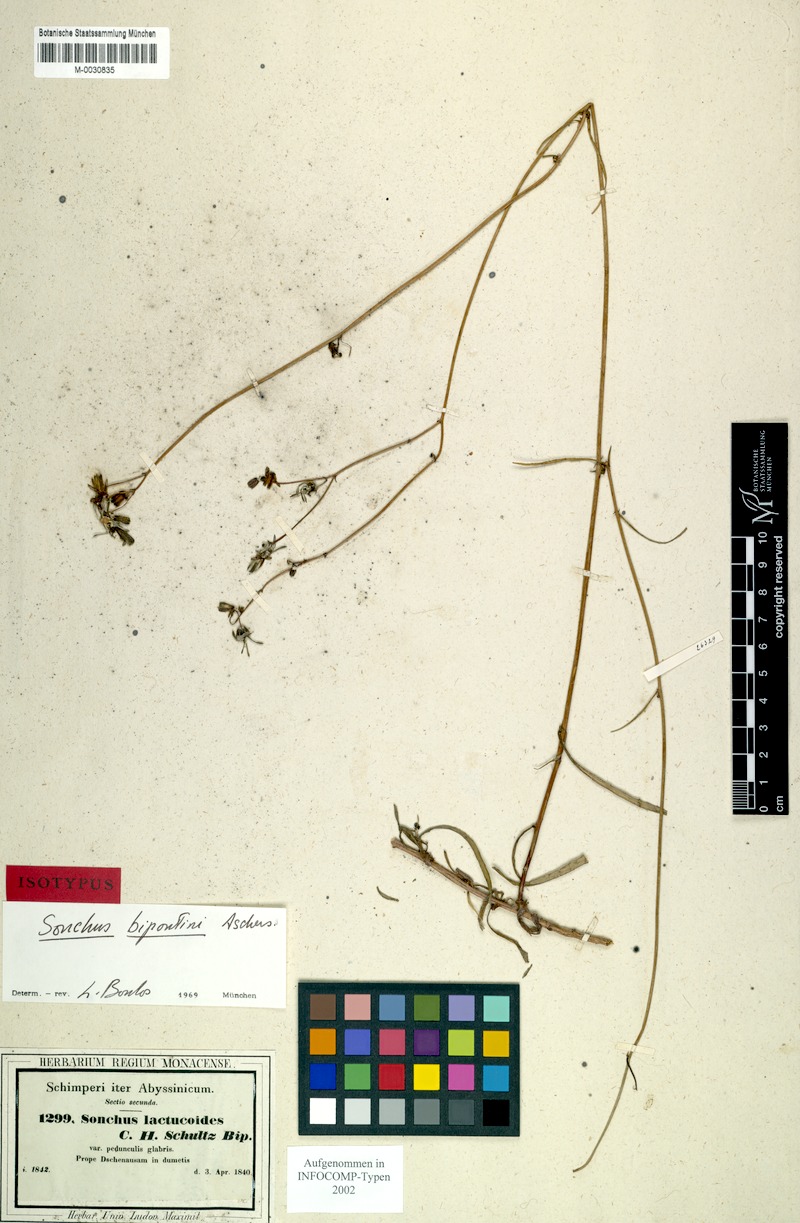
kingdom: Plantae
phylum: Tracheophyta
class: Magnoliopsida
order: Asterales
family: Asteraceae
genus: Sonchus
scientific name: Sonchus bipontini
